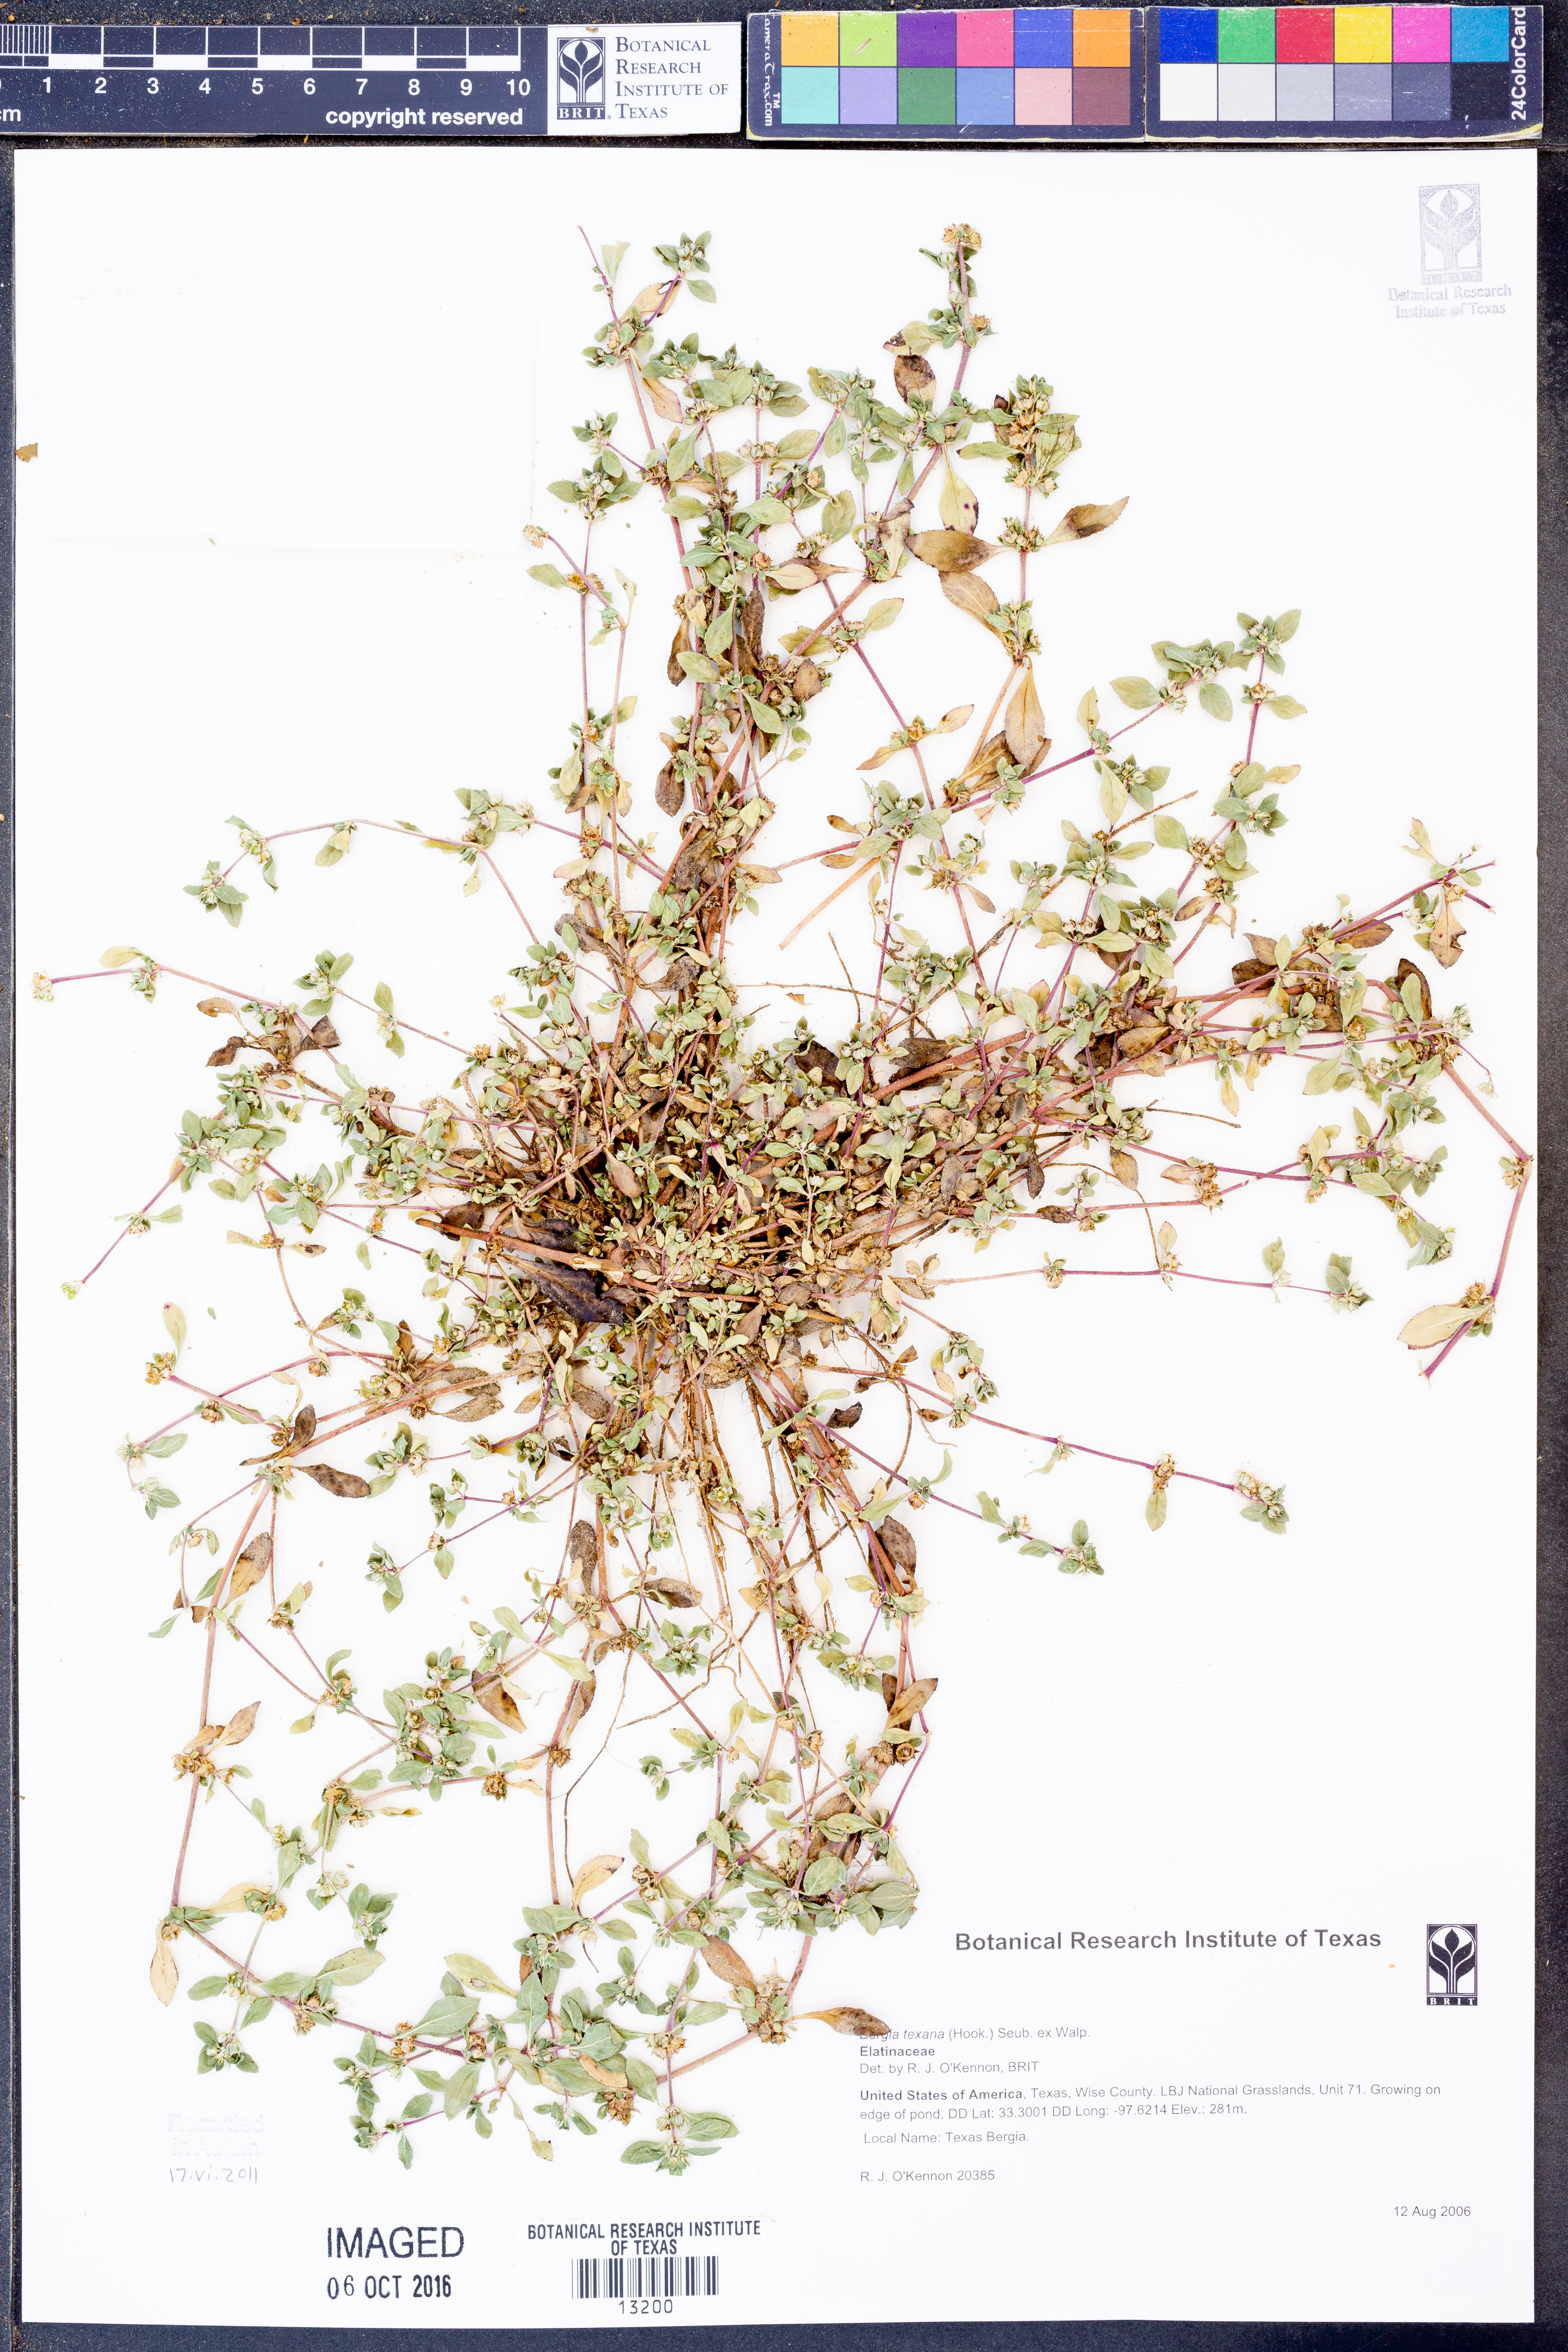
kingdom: Plantae
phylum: Tracheophyta
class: Magnoliopsida
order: Malpighiales
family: Elatinaceae
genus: Bergia
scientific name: Bergia texana
